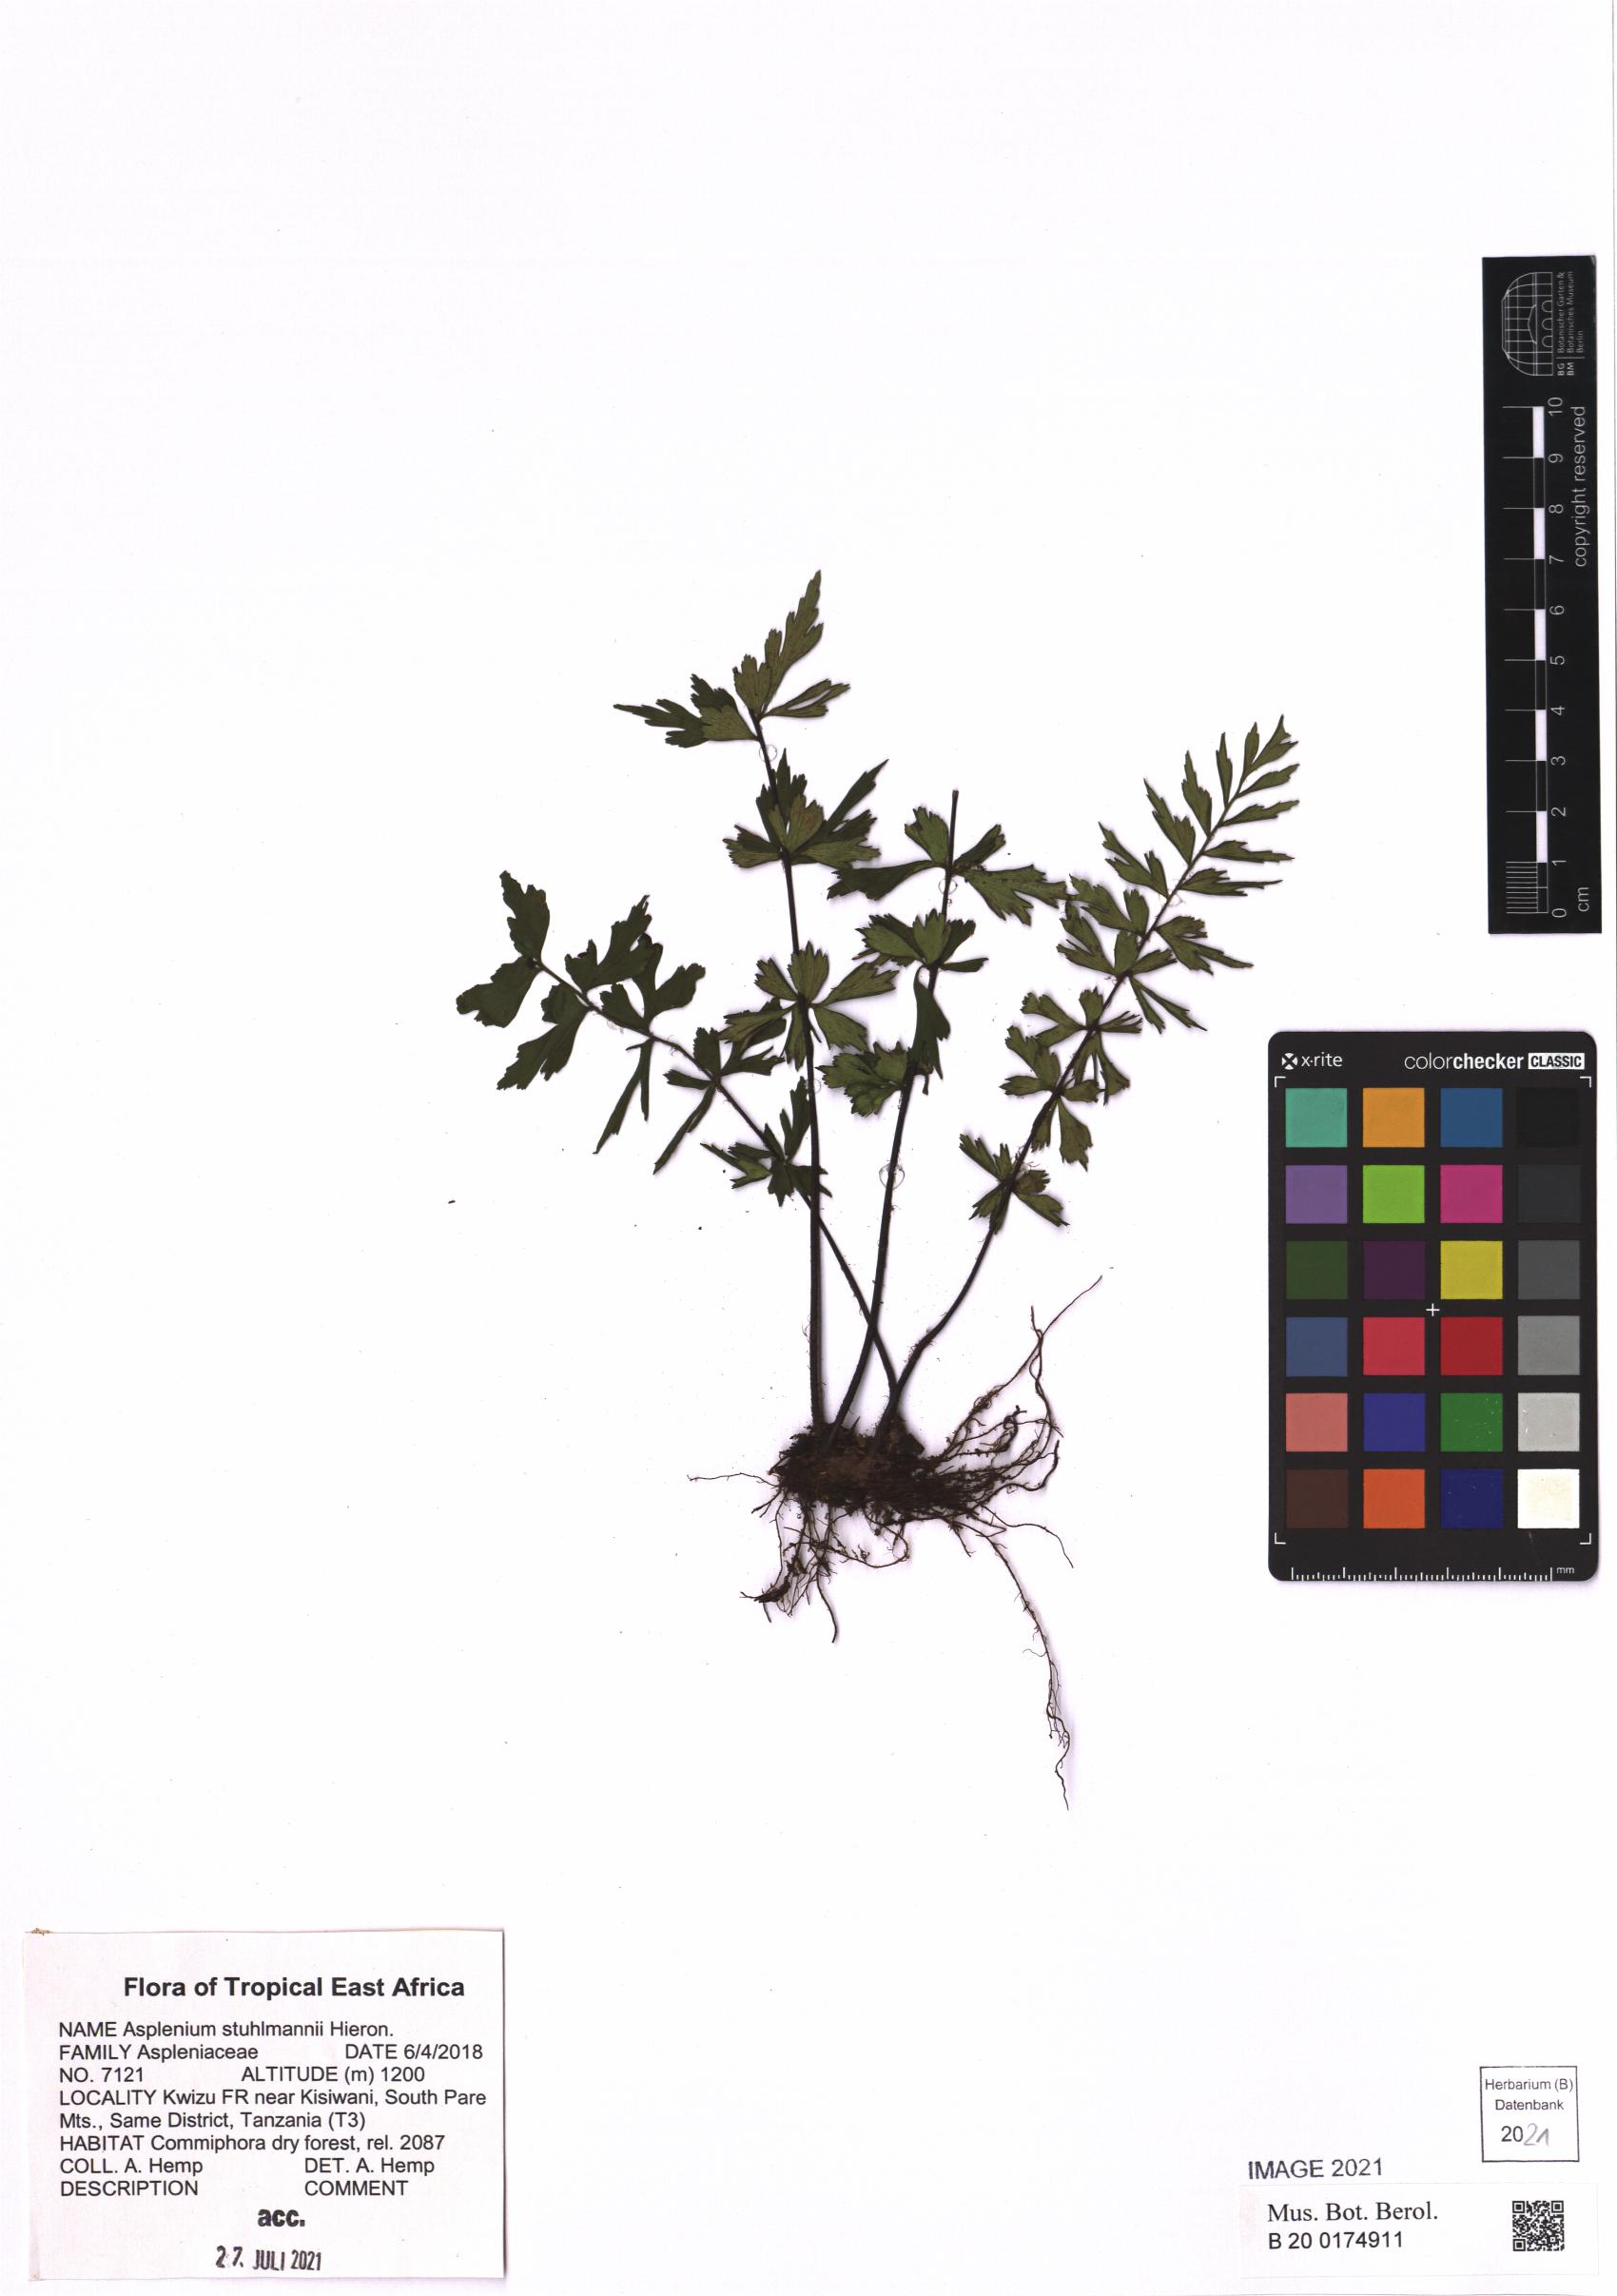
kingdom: Plantae
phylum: Tracheophyta
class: Polypodiopsida
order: Polypodiales
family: Aspleniaceae
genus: Asplenium
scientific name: Asplenium stuhlmannii
